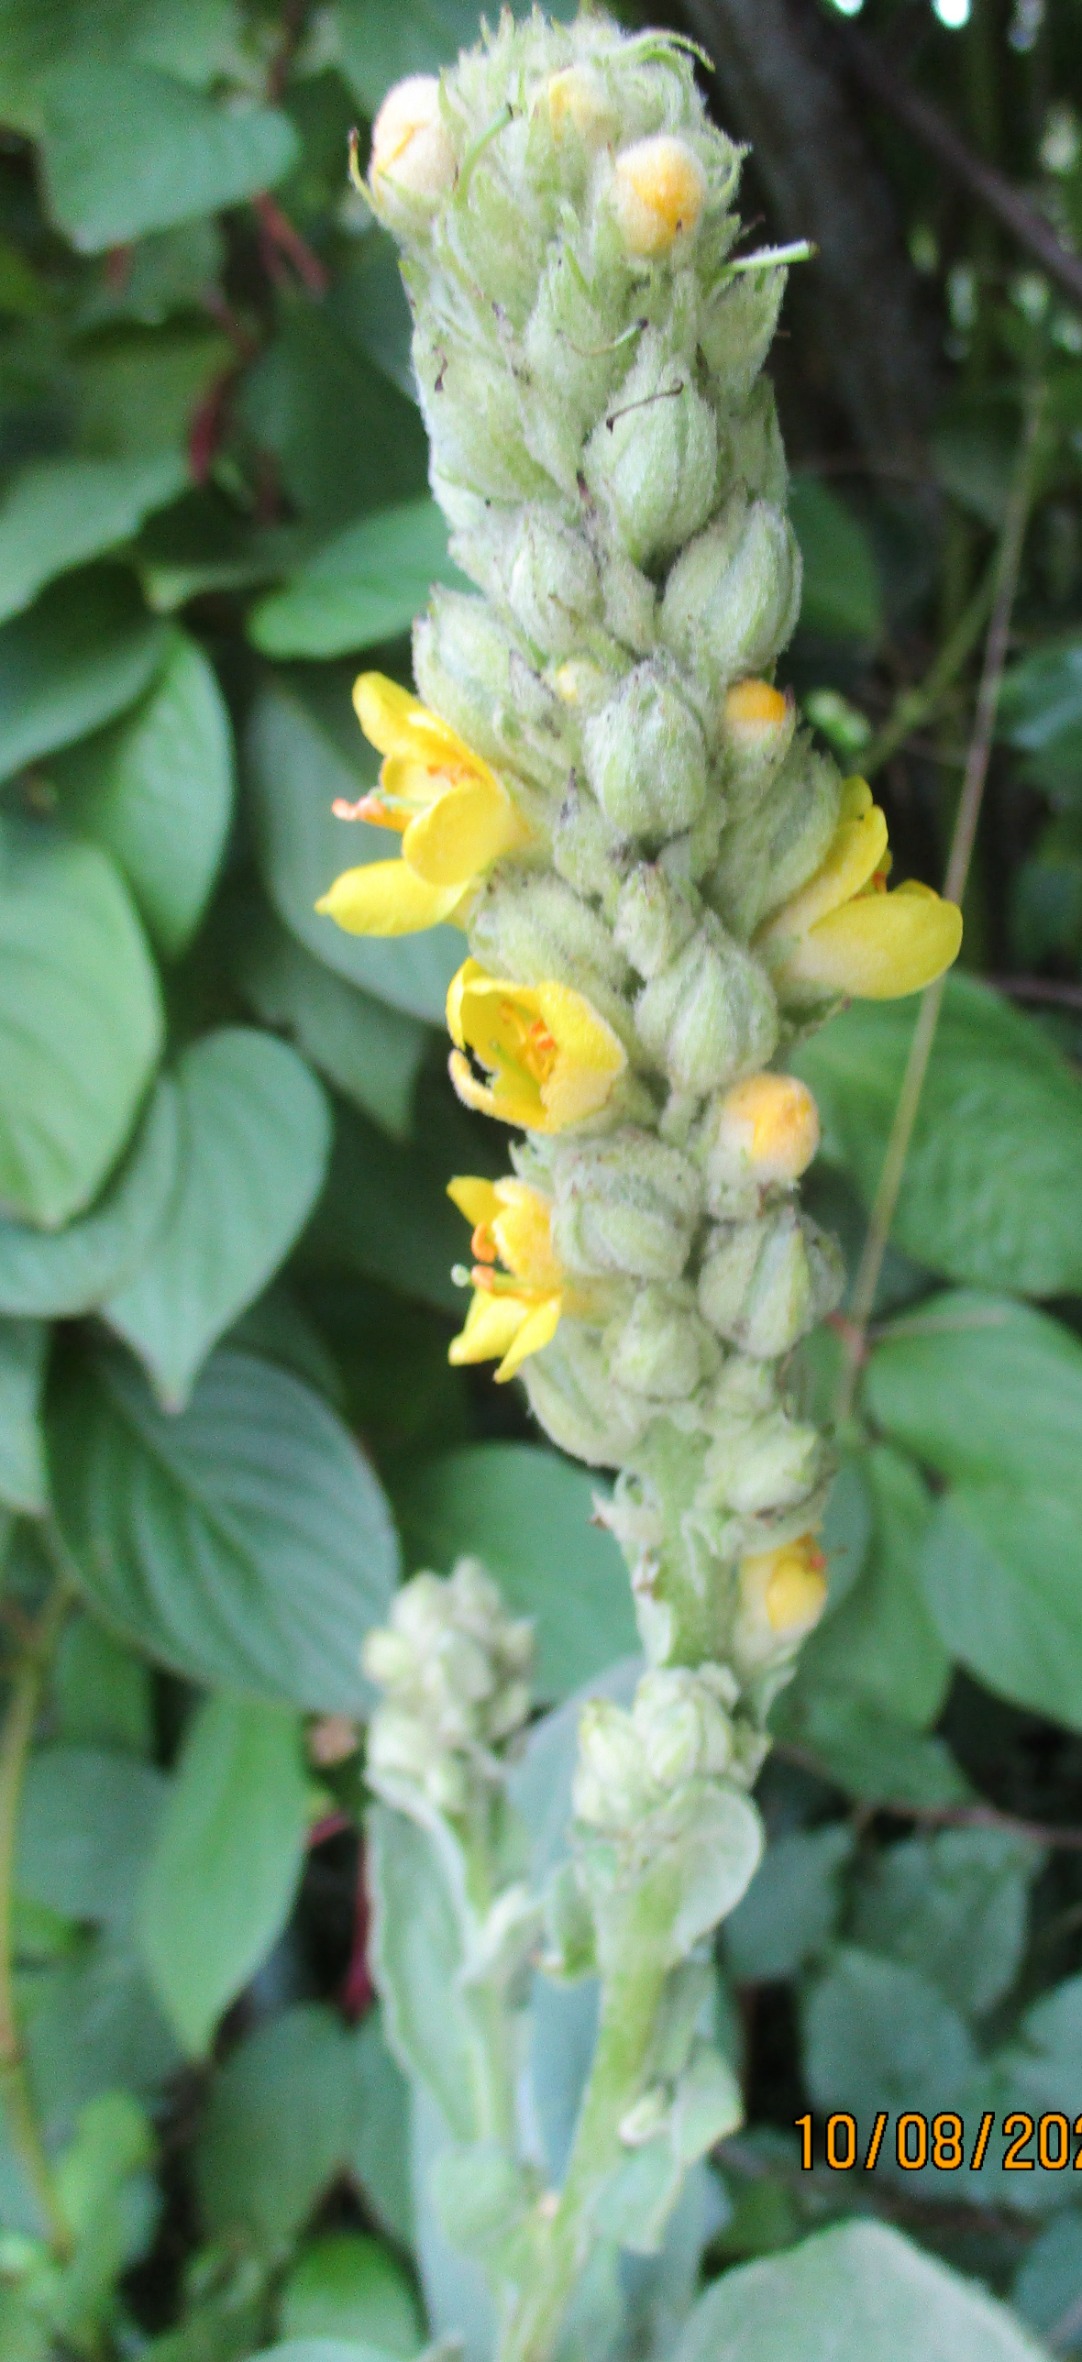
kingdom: Plantae
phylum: Tracheophyta
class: Magnoliopsida
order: Lamiales
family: Scrophulariaceae
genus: Verbascum
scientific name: Verbascum thapsus
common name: Filtbladet kongelys
